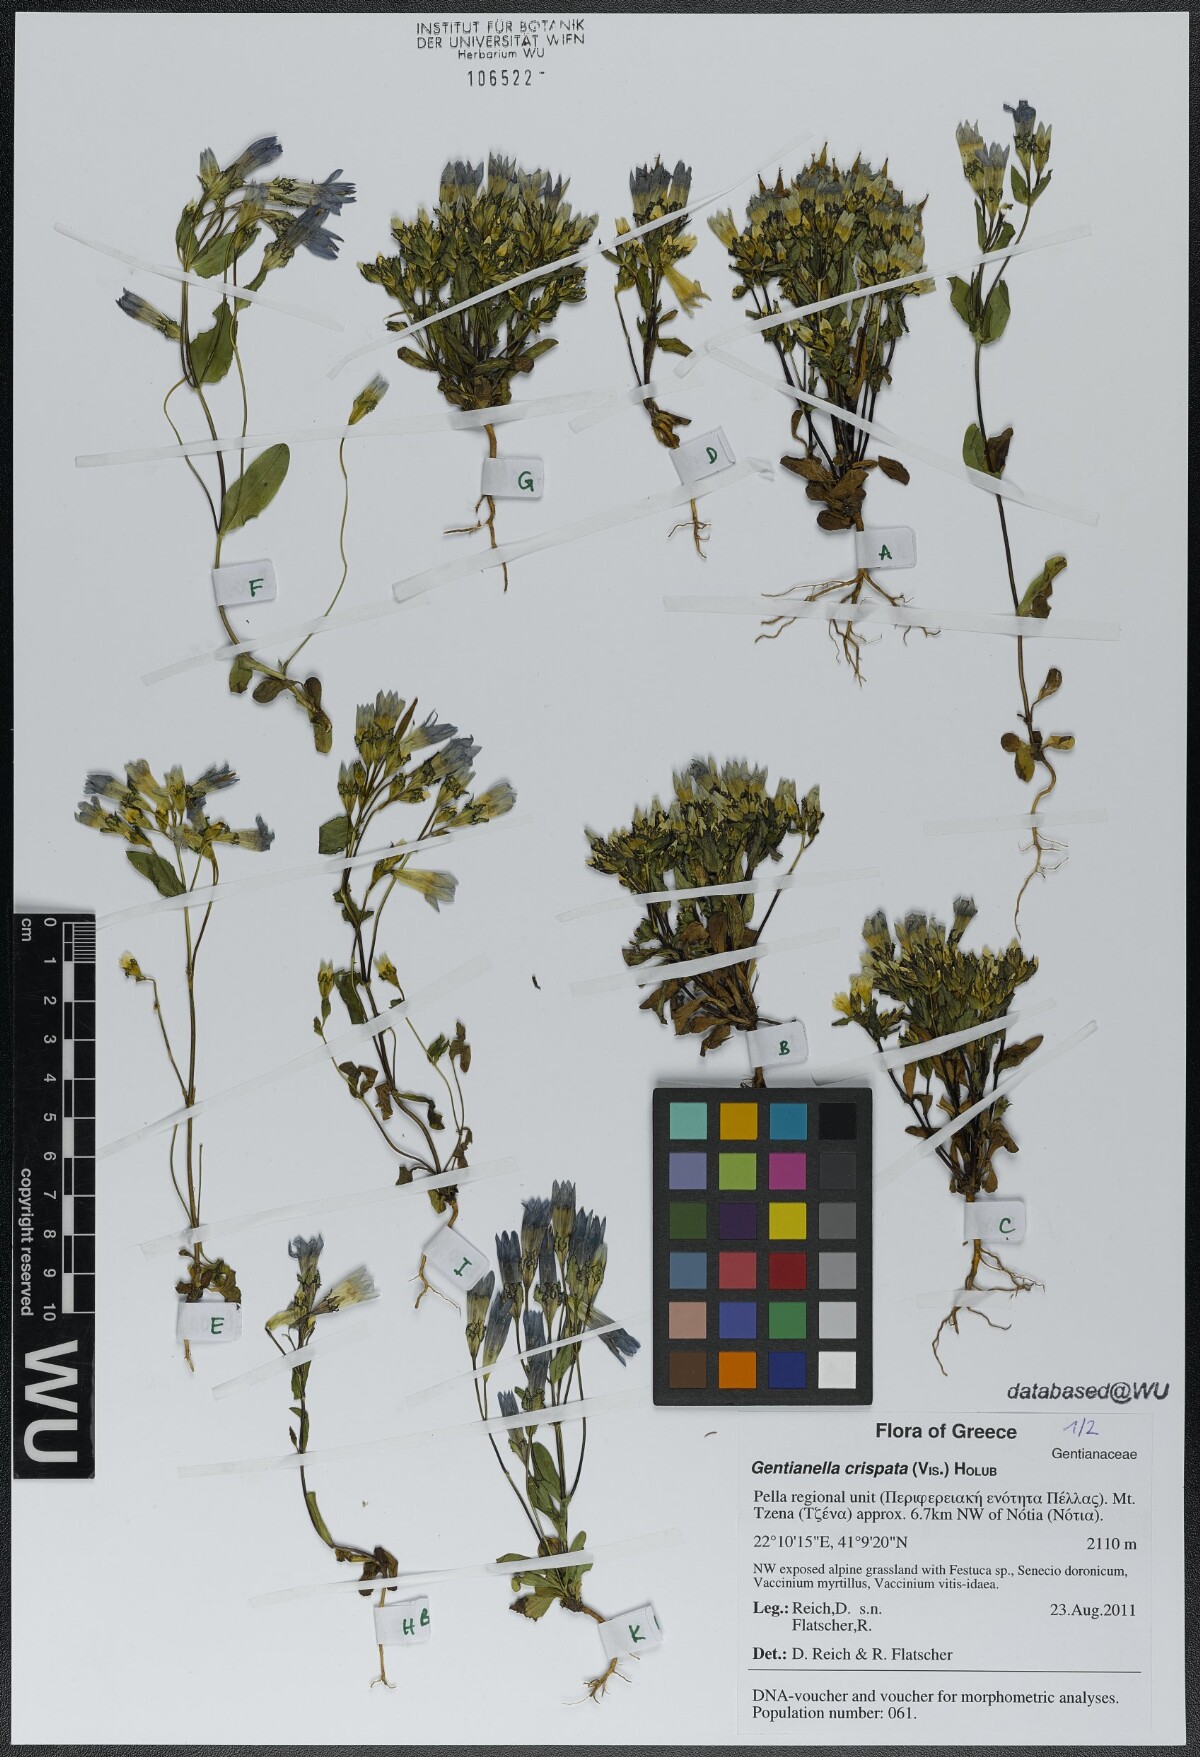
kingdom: Plantae
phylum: Tracheophyta
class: Magnoliopsida
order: Gentianales
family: Gentianaceae
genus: Gentianella
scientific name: Gentianella crispata
